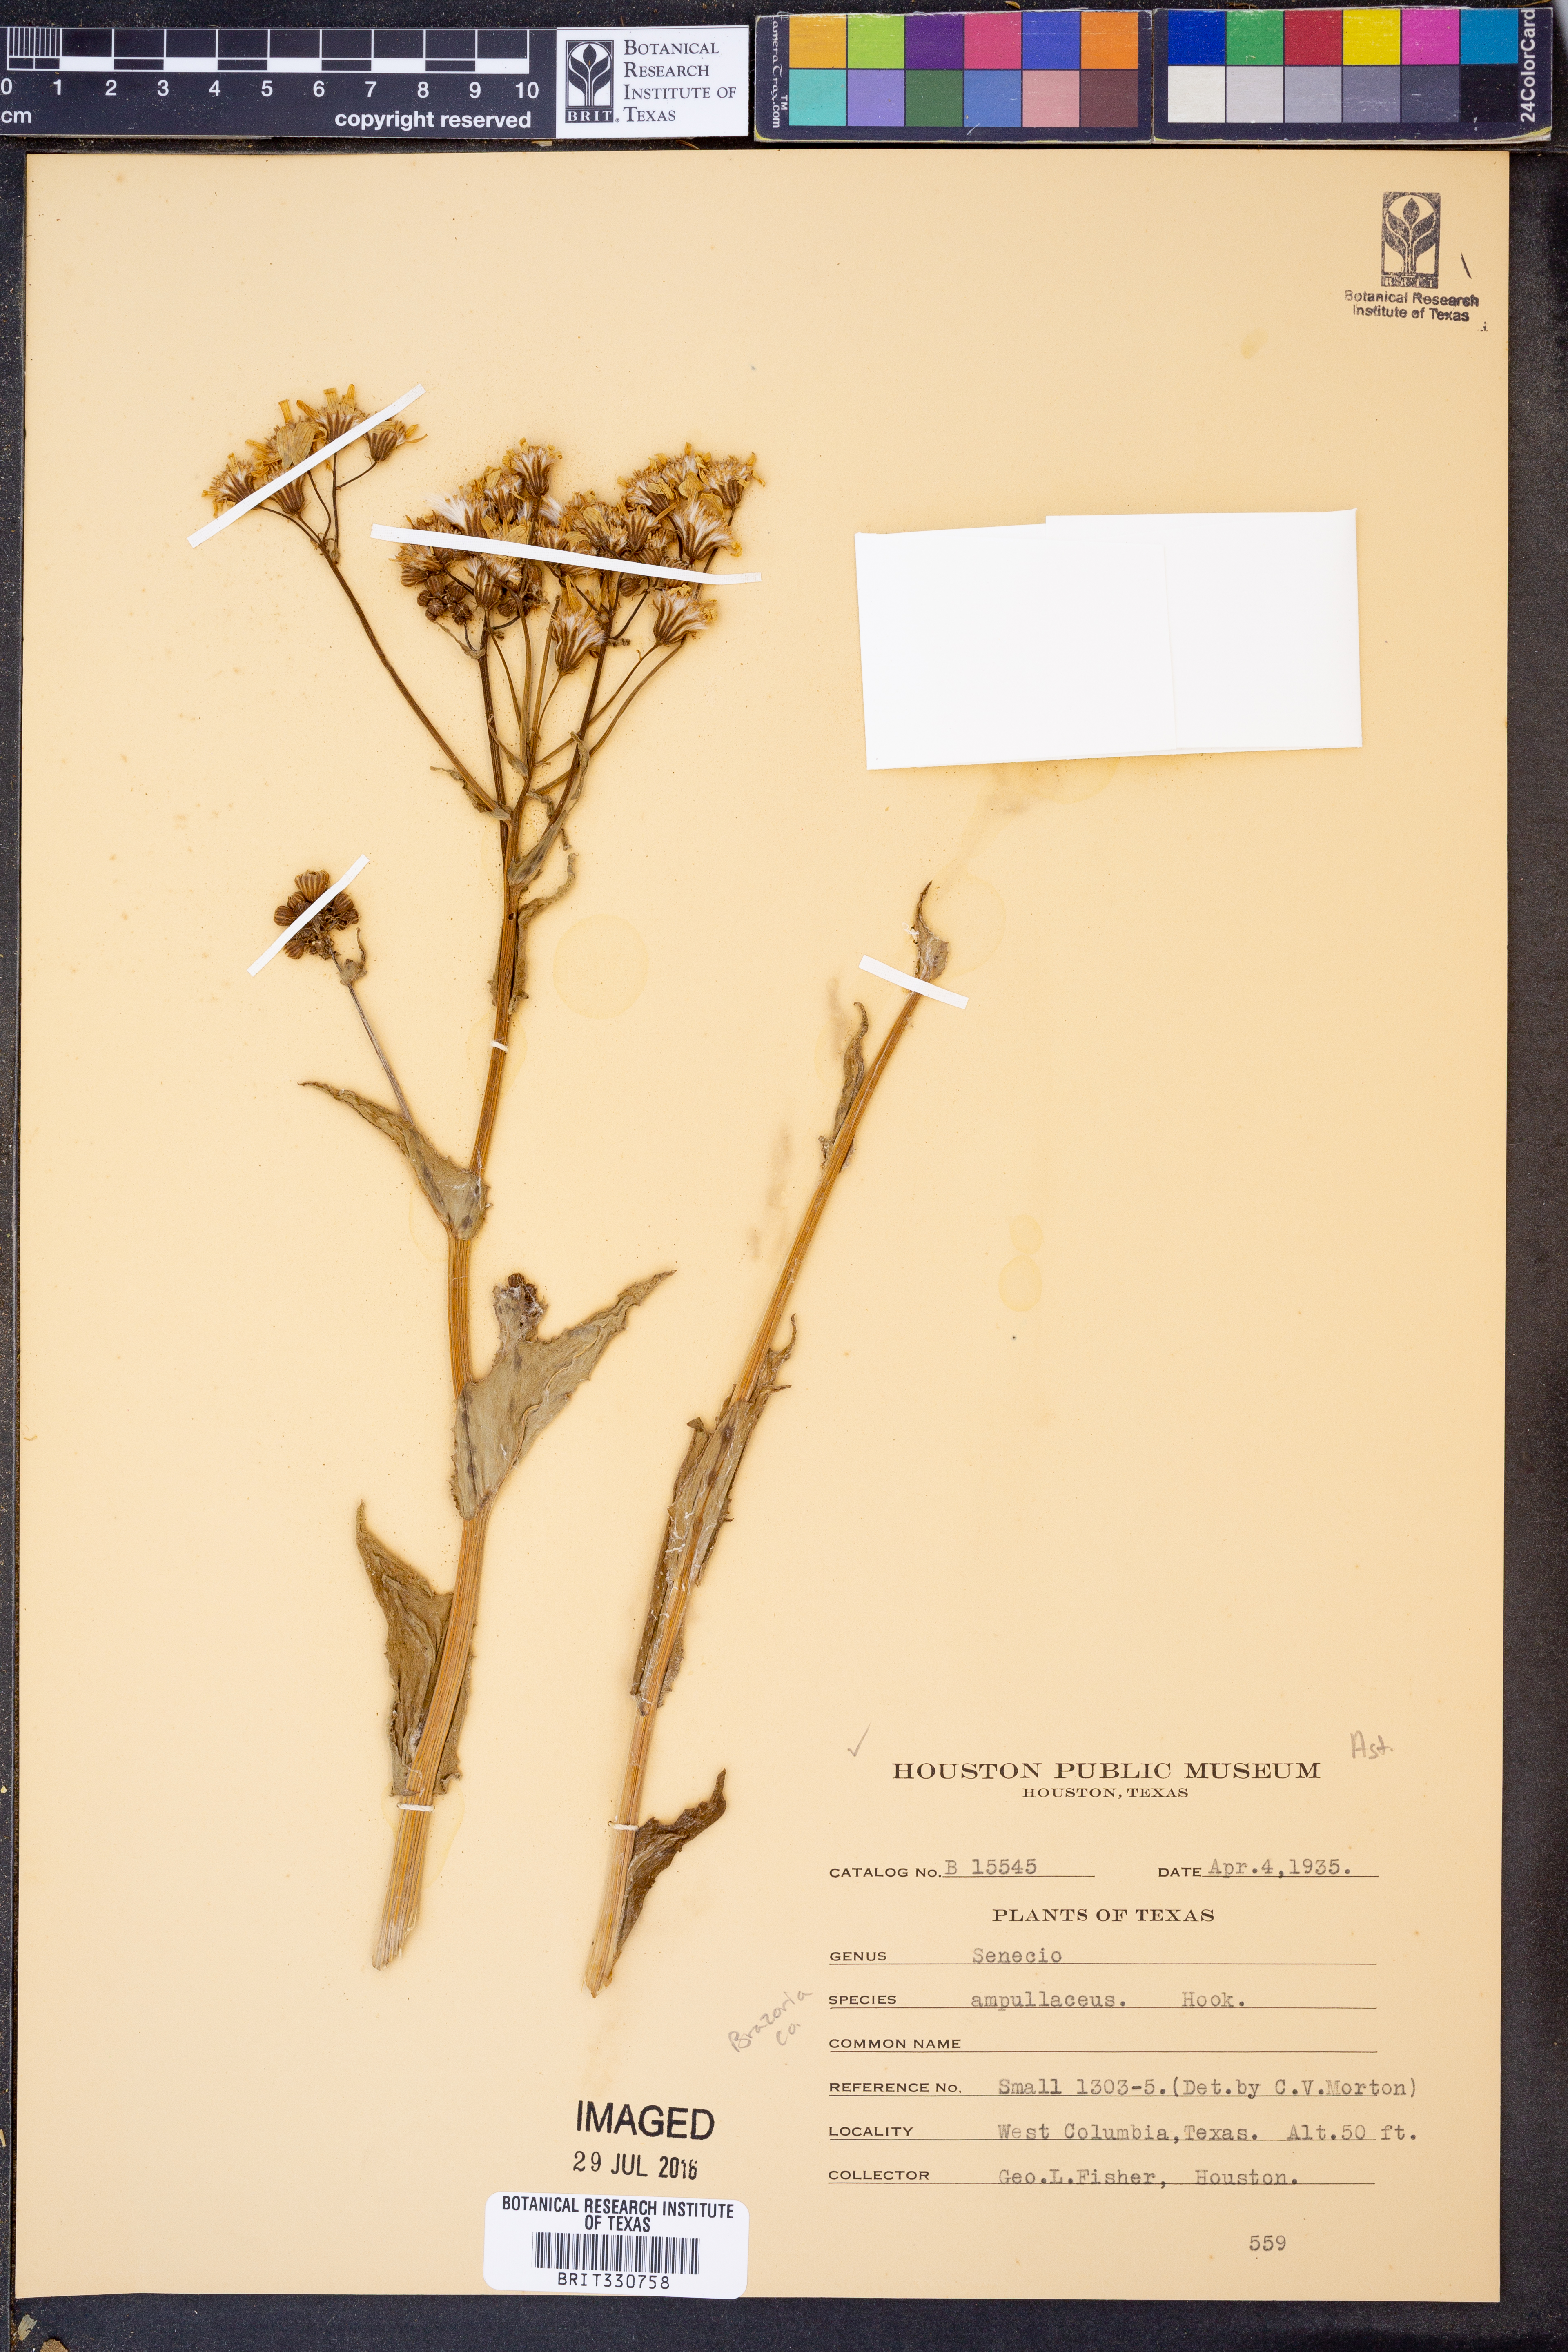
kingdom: Plantae
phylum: Tracheophyta
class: Magnoliopsida
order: Asterales
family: Asteraceae
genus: Senecio
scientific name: Senecio ampullaceus
